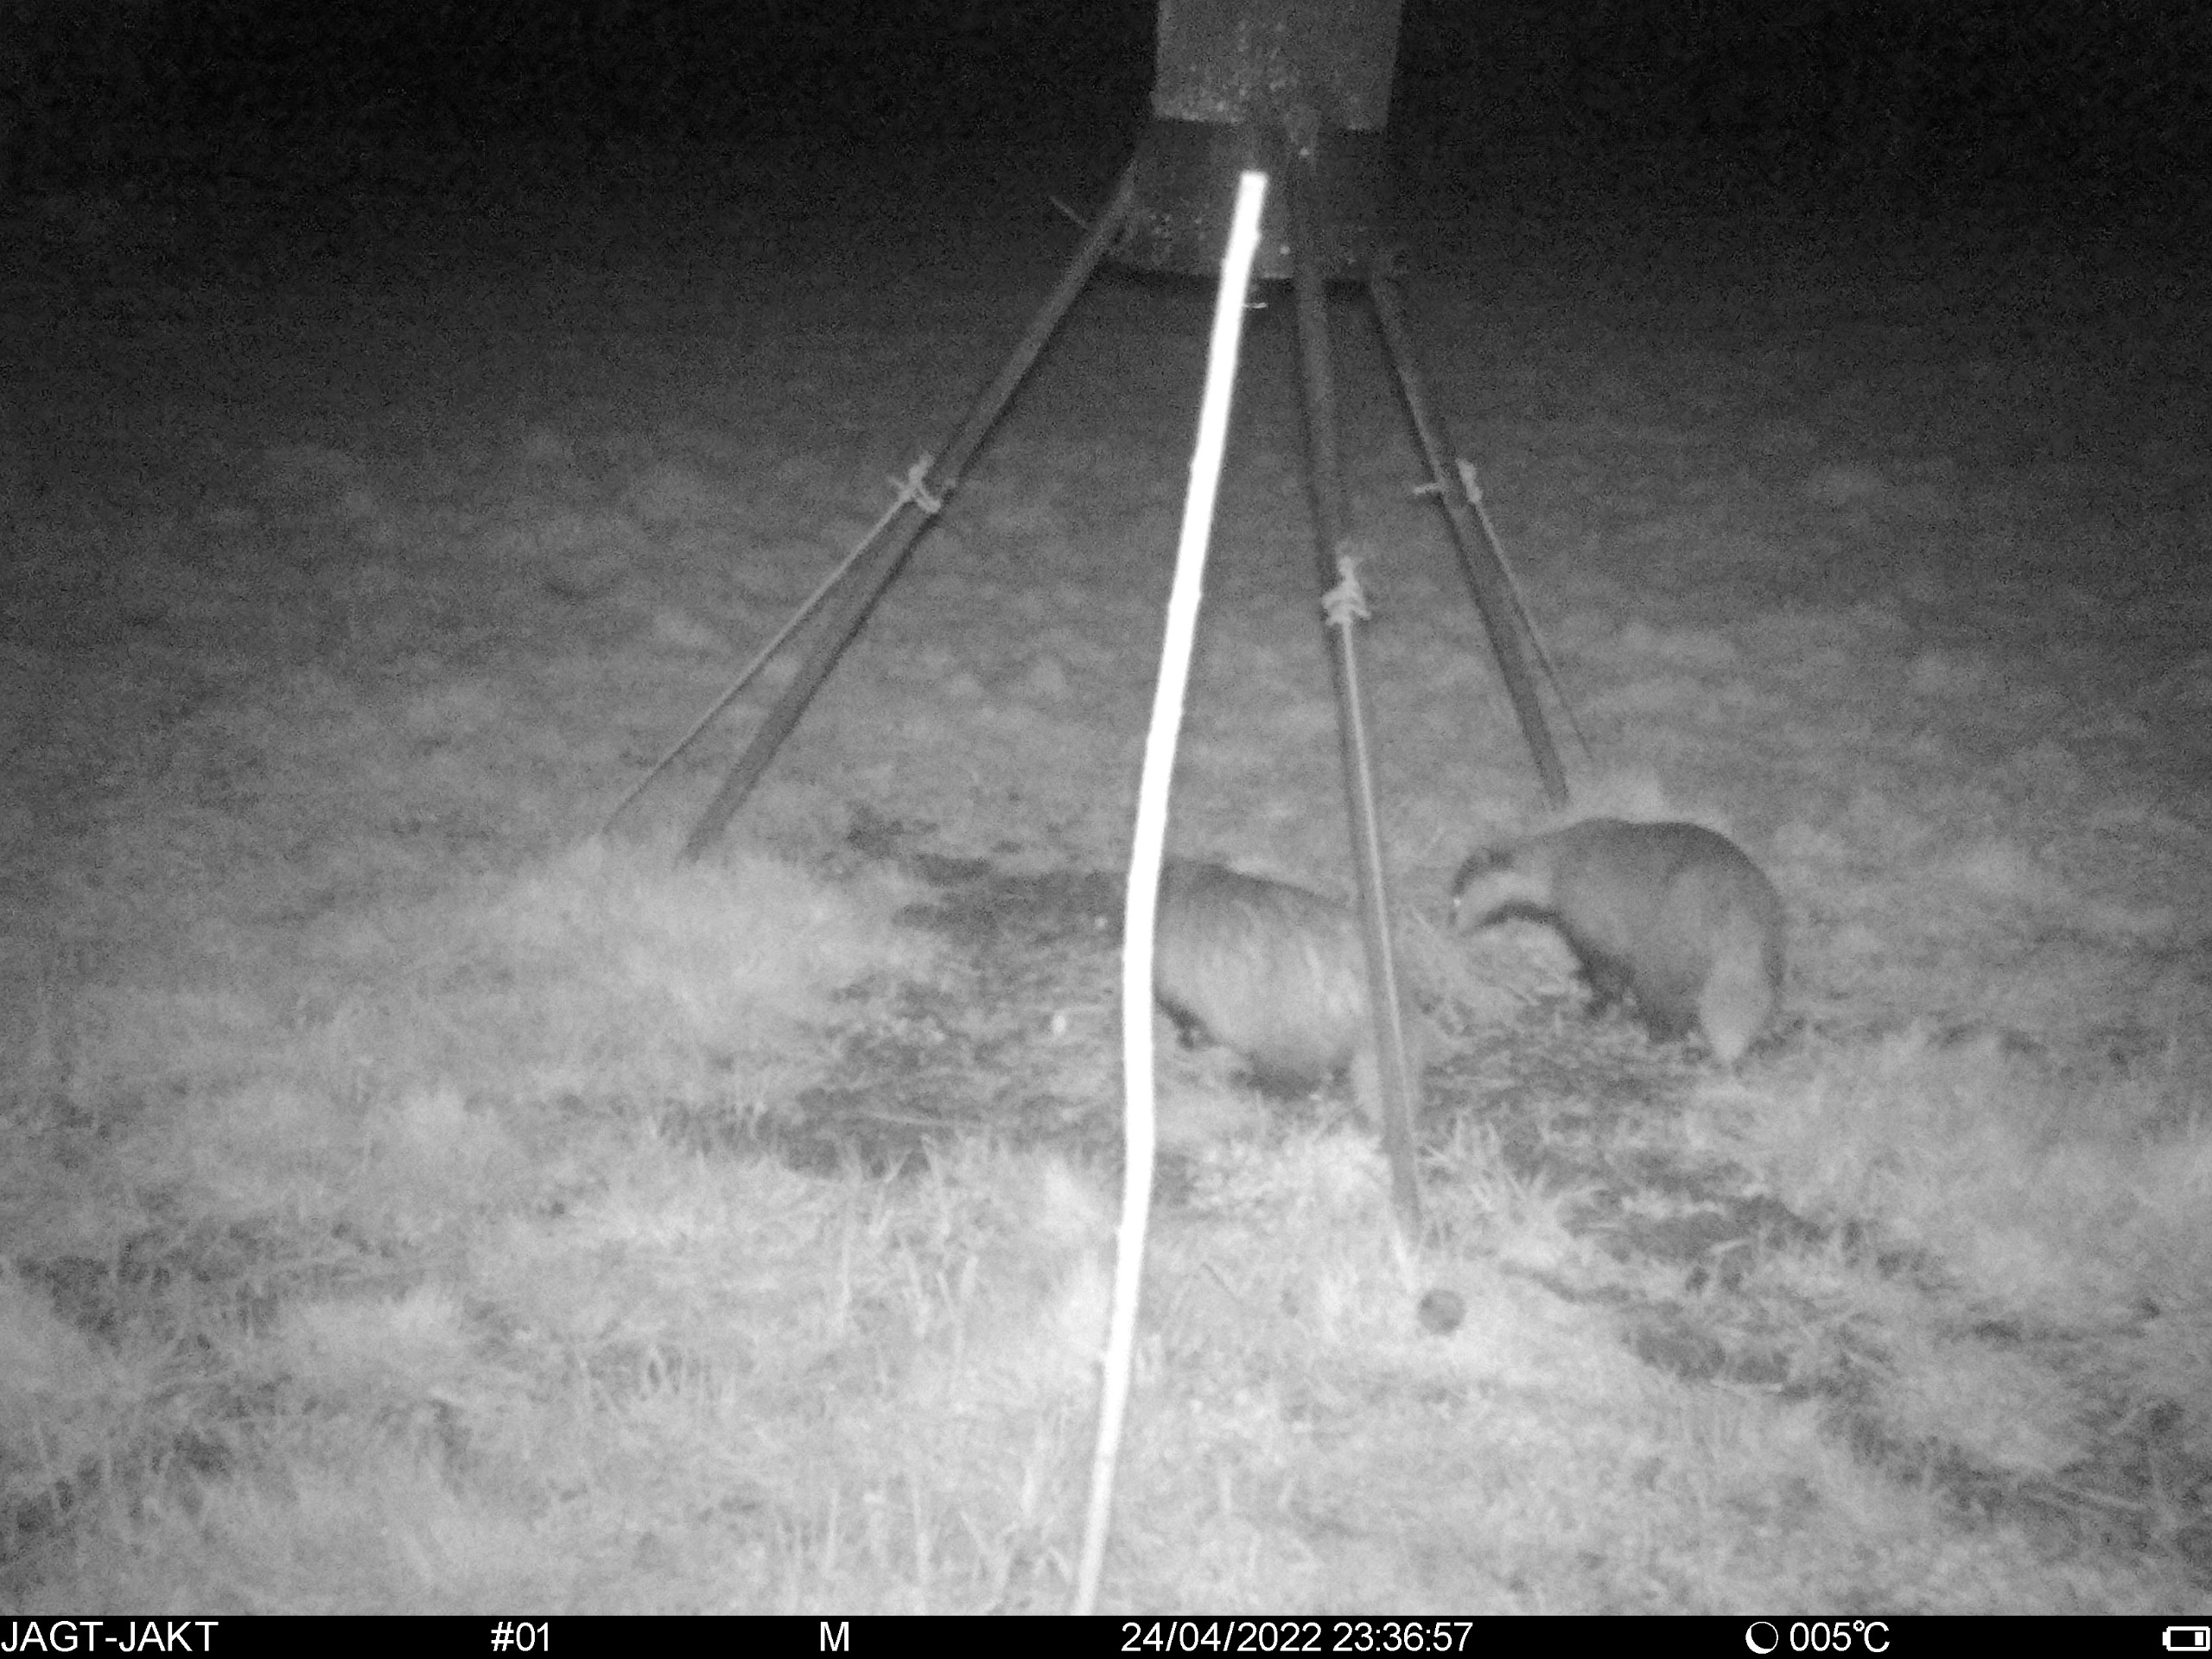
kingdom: Animalia
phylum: Chordata
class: Mammalia
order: Carnivora
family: Mustelidae
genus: Meles
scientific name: Meles meles
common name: Grævling
